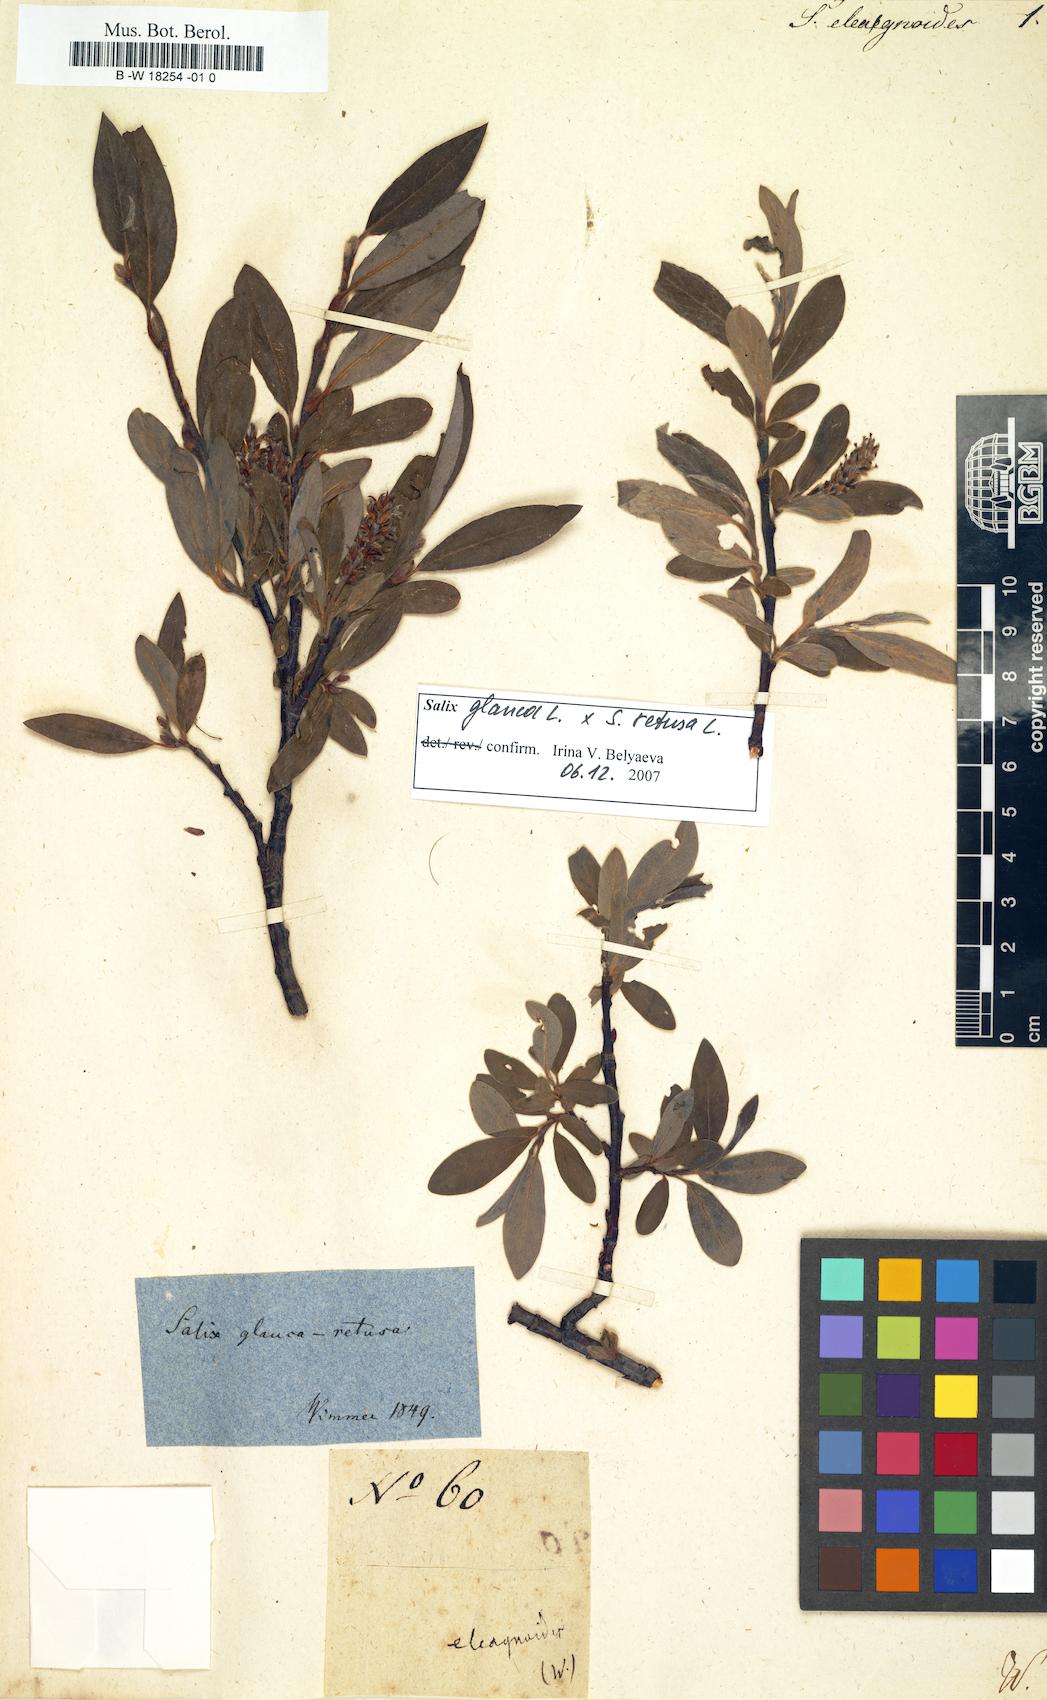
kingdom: Plantae
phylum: Tracheophyta
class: Magnoliopsida
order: Malpighiales
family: Salicaceae
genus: Salix
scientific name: Salix eleagnoides
